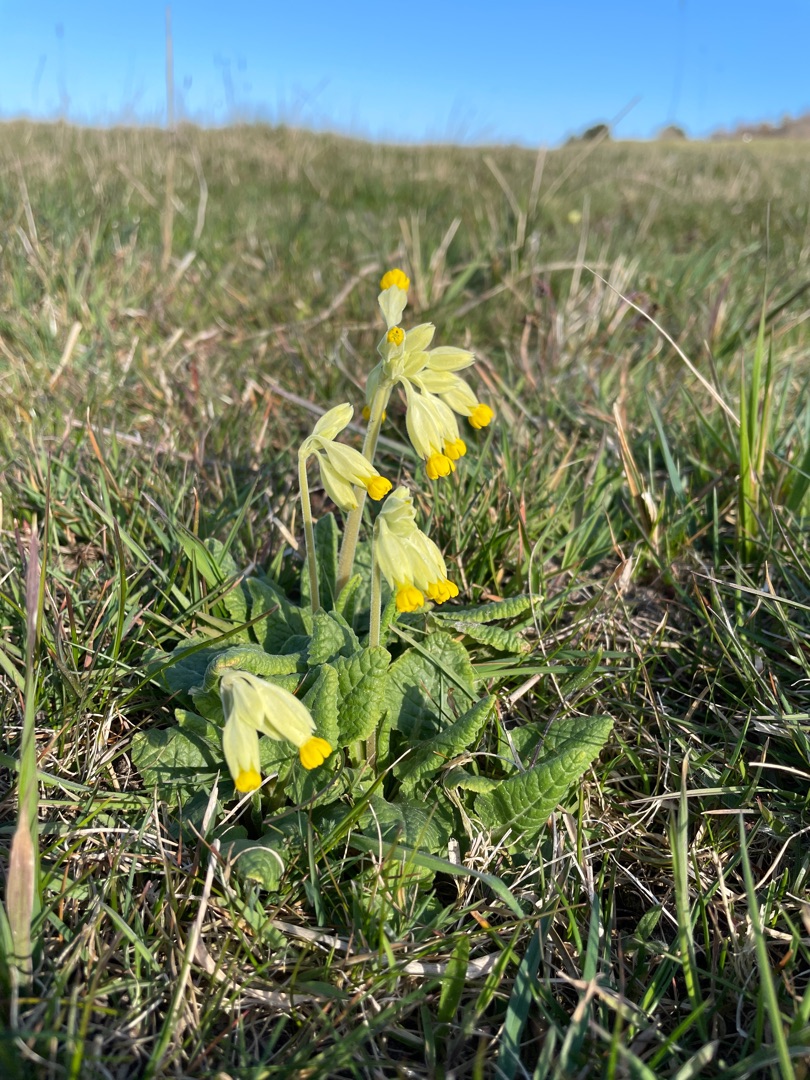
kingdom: Plantae
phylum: Tracheophyta
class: Magnoliopsida
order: Ericales
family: Primulaceae
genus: Primula
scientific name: Primula veris
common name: Hulkravet kodriver
